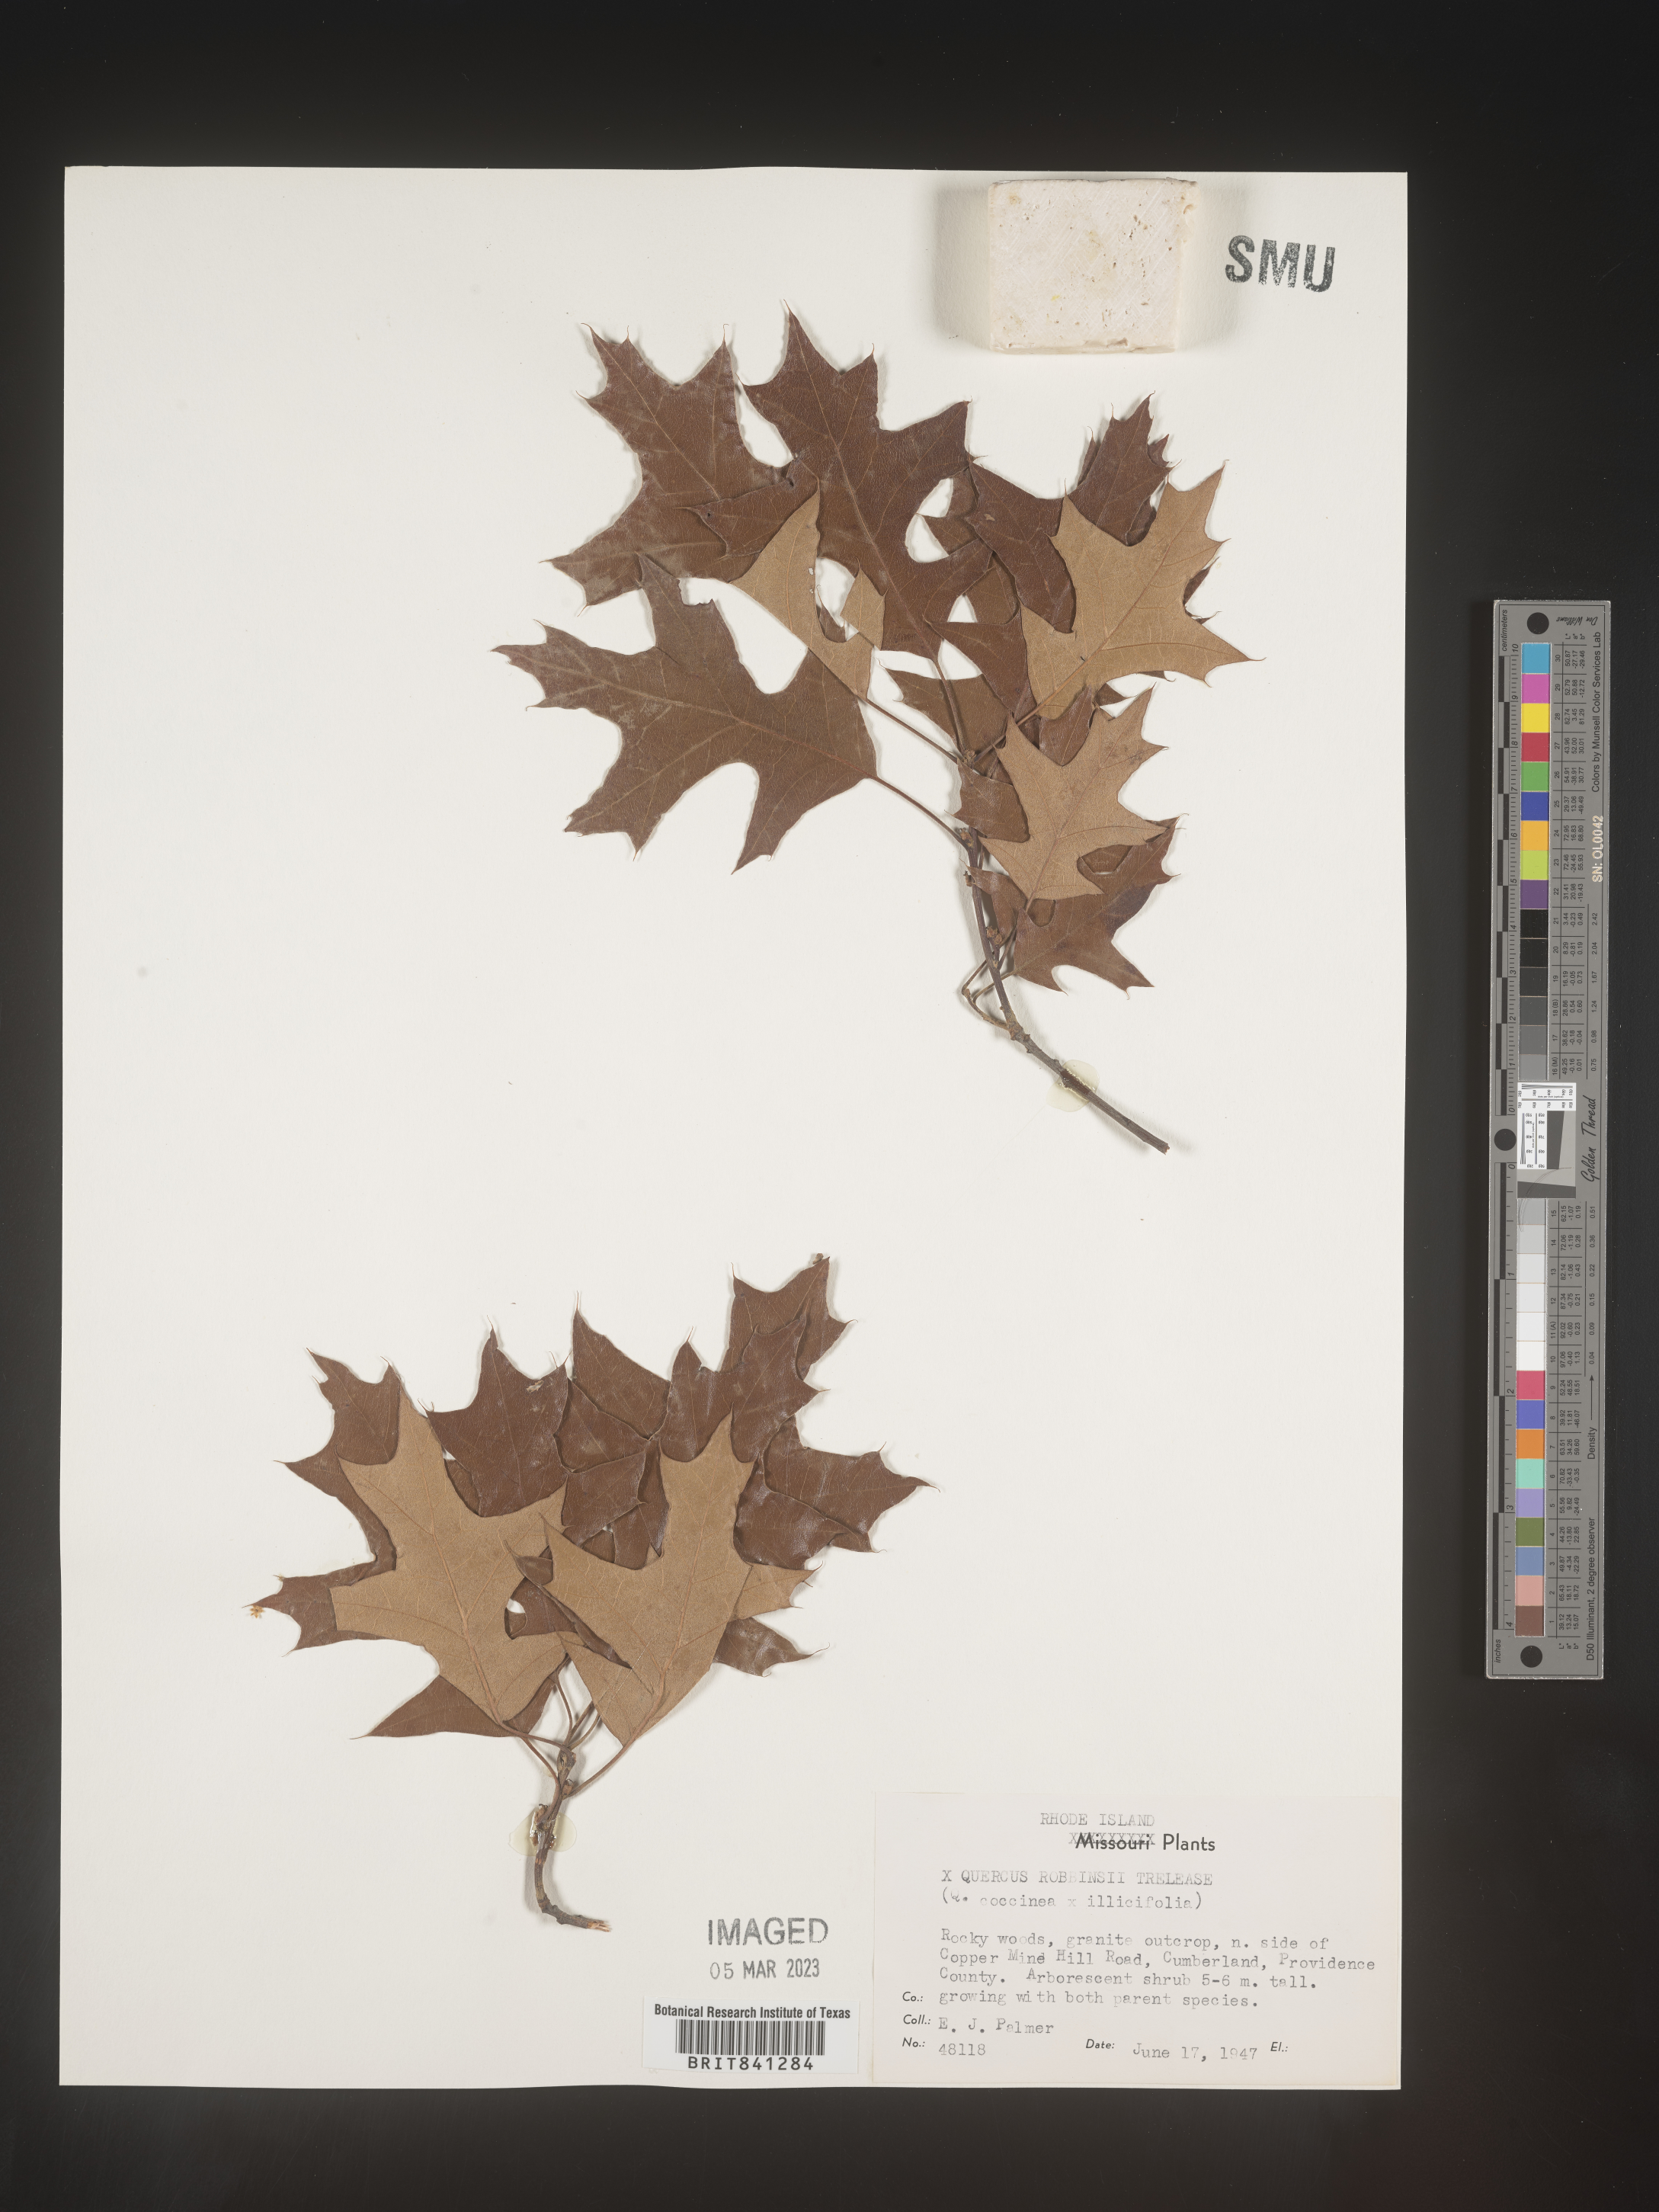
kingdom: Plantae
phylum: Tracheophyta
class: Magnoliopsida
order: Fagales
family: Fagaceae
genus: Quercus
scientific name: Quercus
